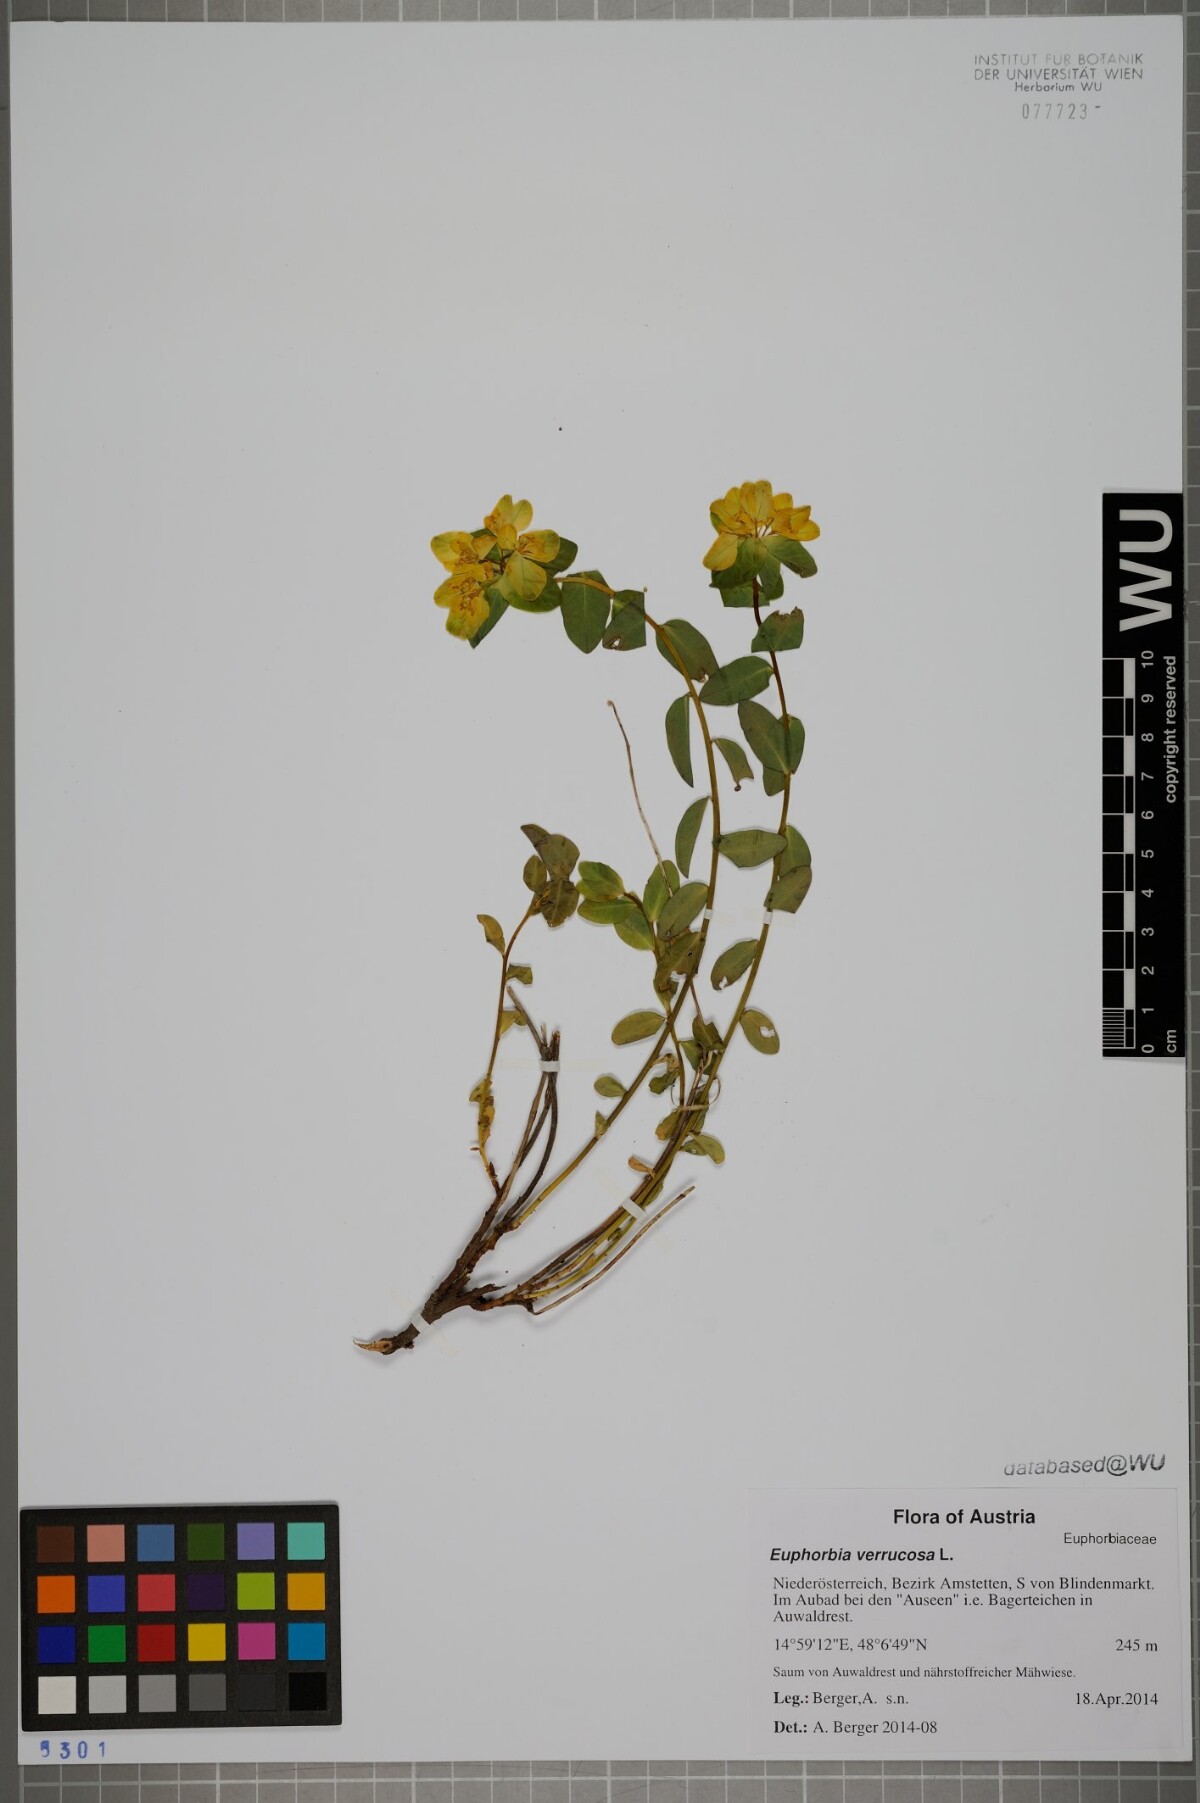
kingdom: Plantae
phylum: Tracheophyta
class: Magnoliopsida
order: Malpighiales
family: Euphorbiaceae
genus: Euphorbia
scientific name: Euphorbia verrucosa
